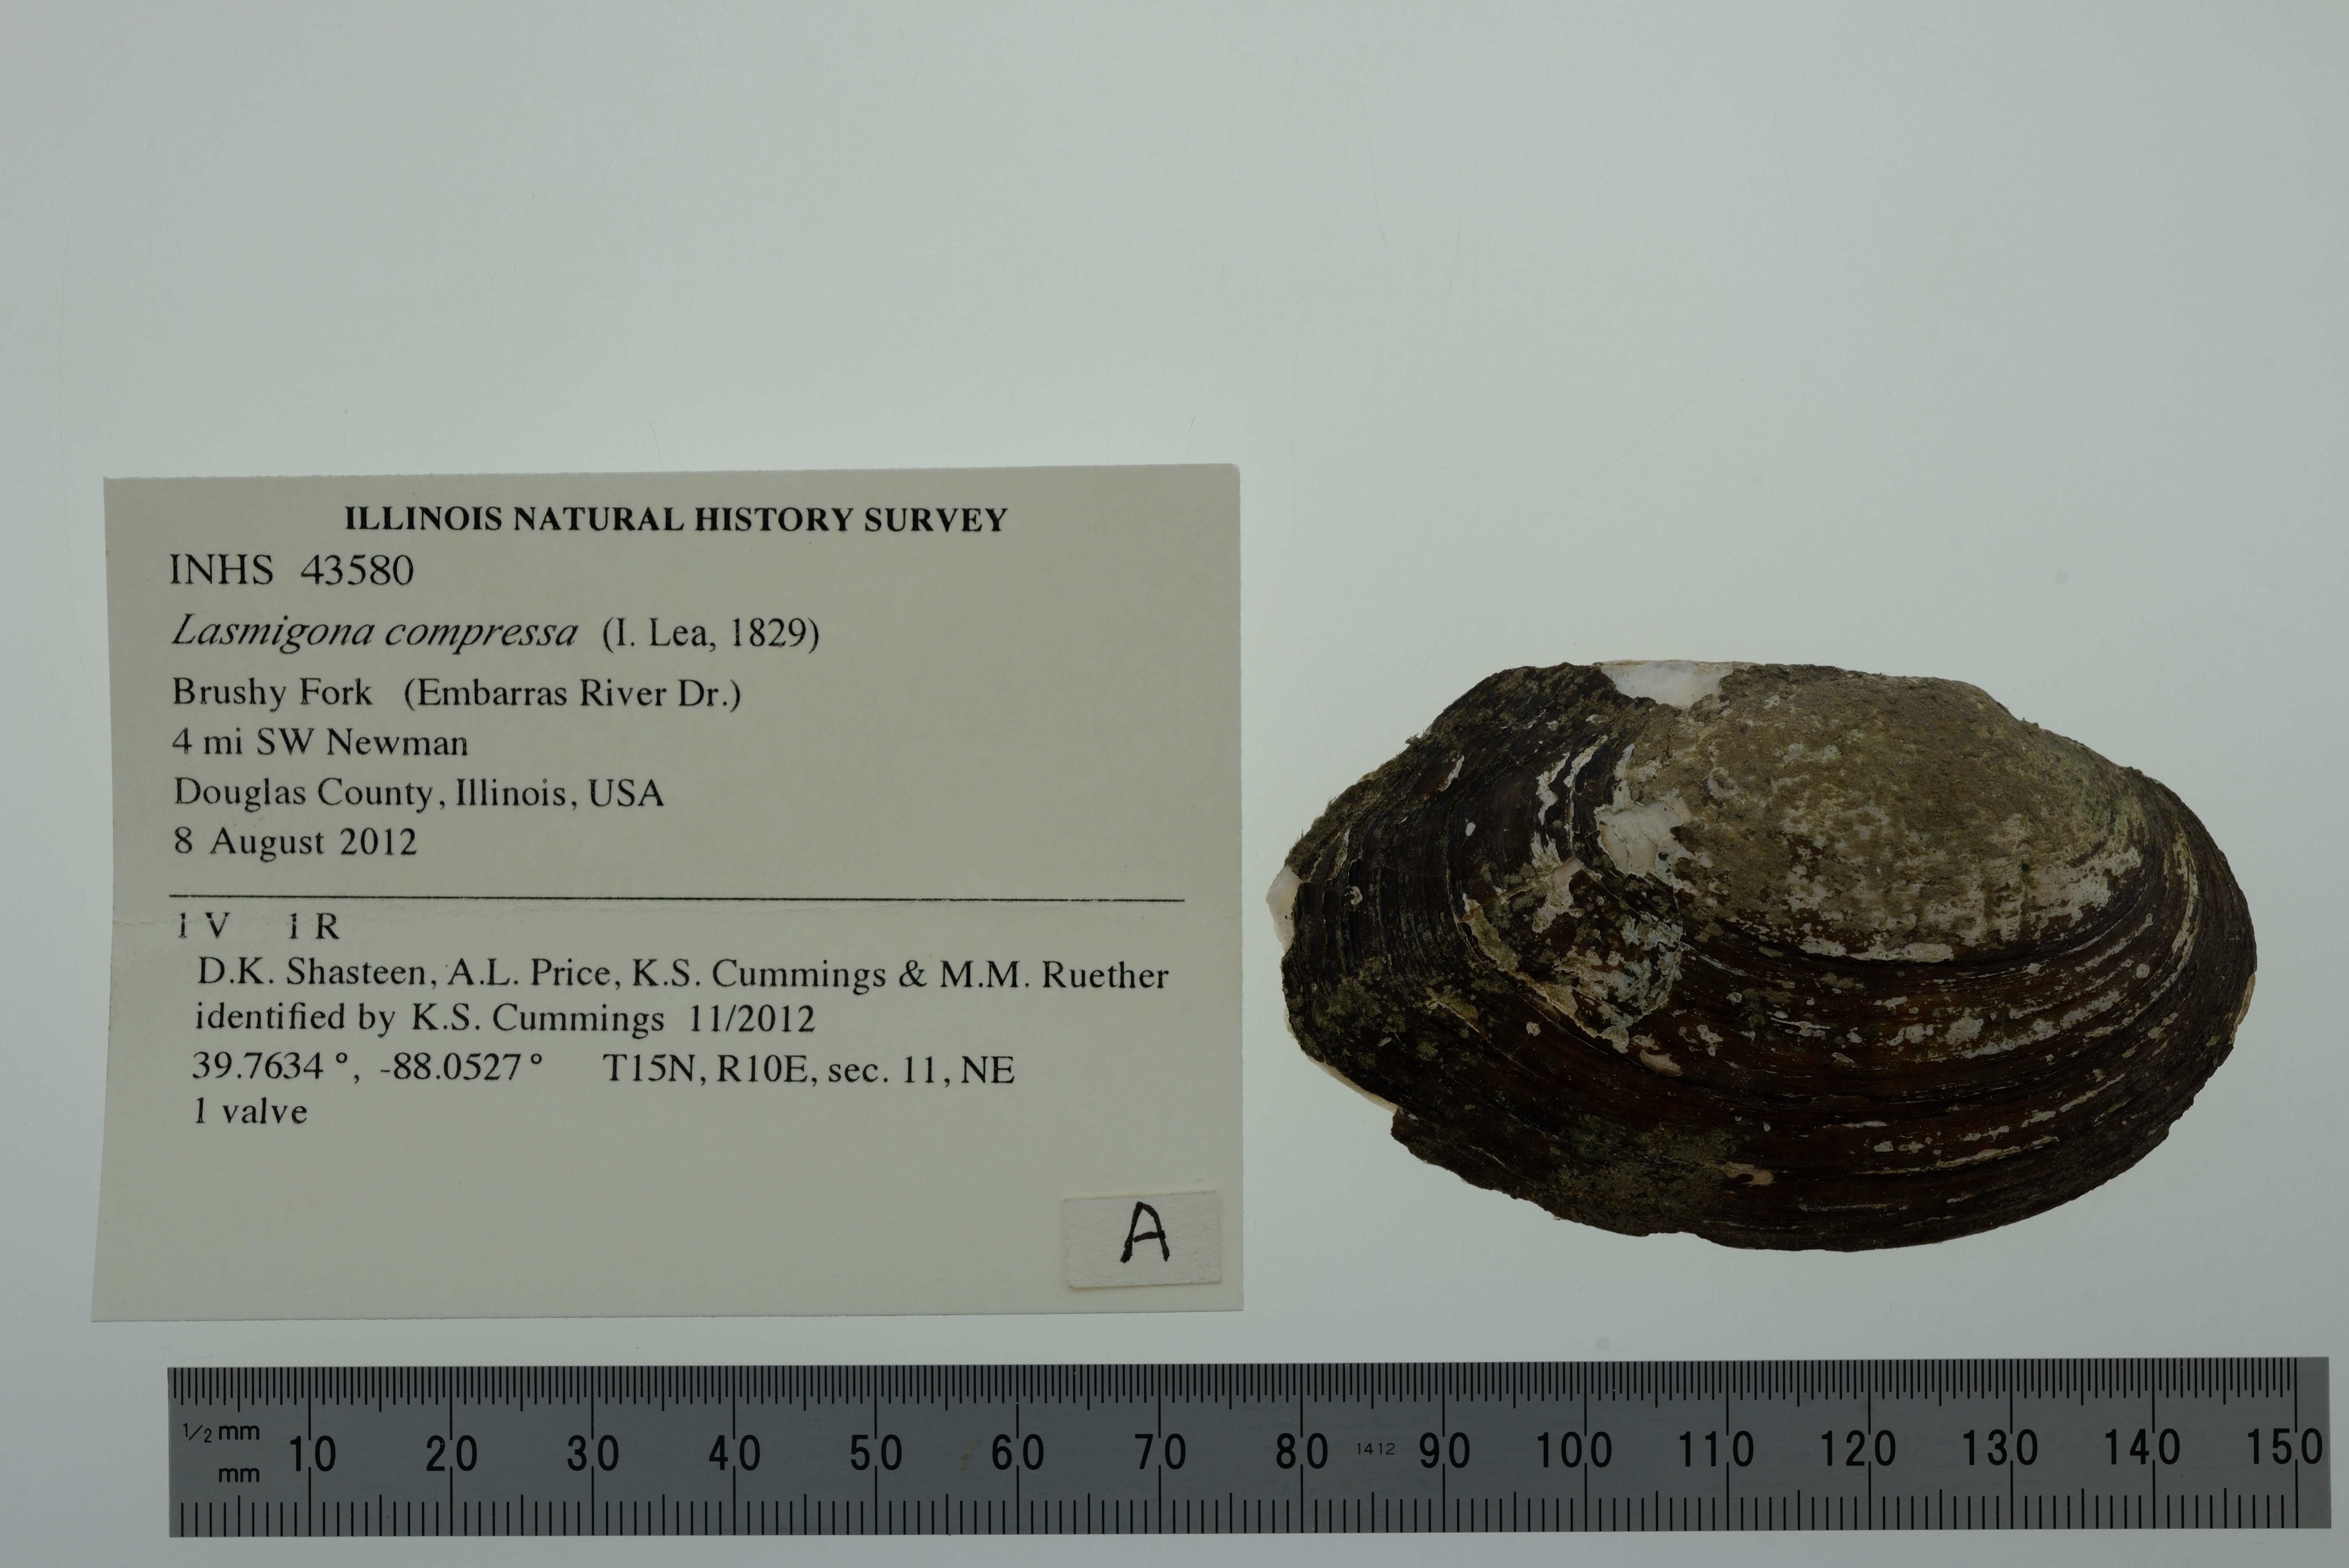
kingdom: Animalia
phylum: Mollusca
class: Bivalvia
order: Unionida
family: Unionidae
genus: Lasmigona
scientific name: Lasmigona compressa
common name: Creek heelsplitter
